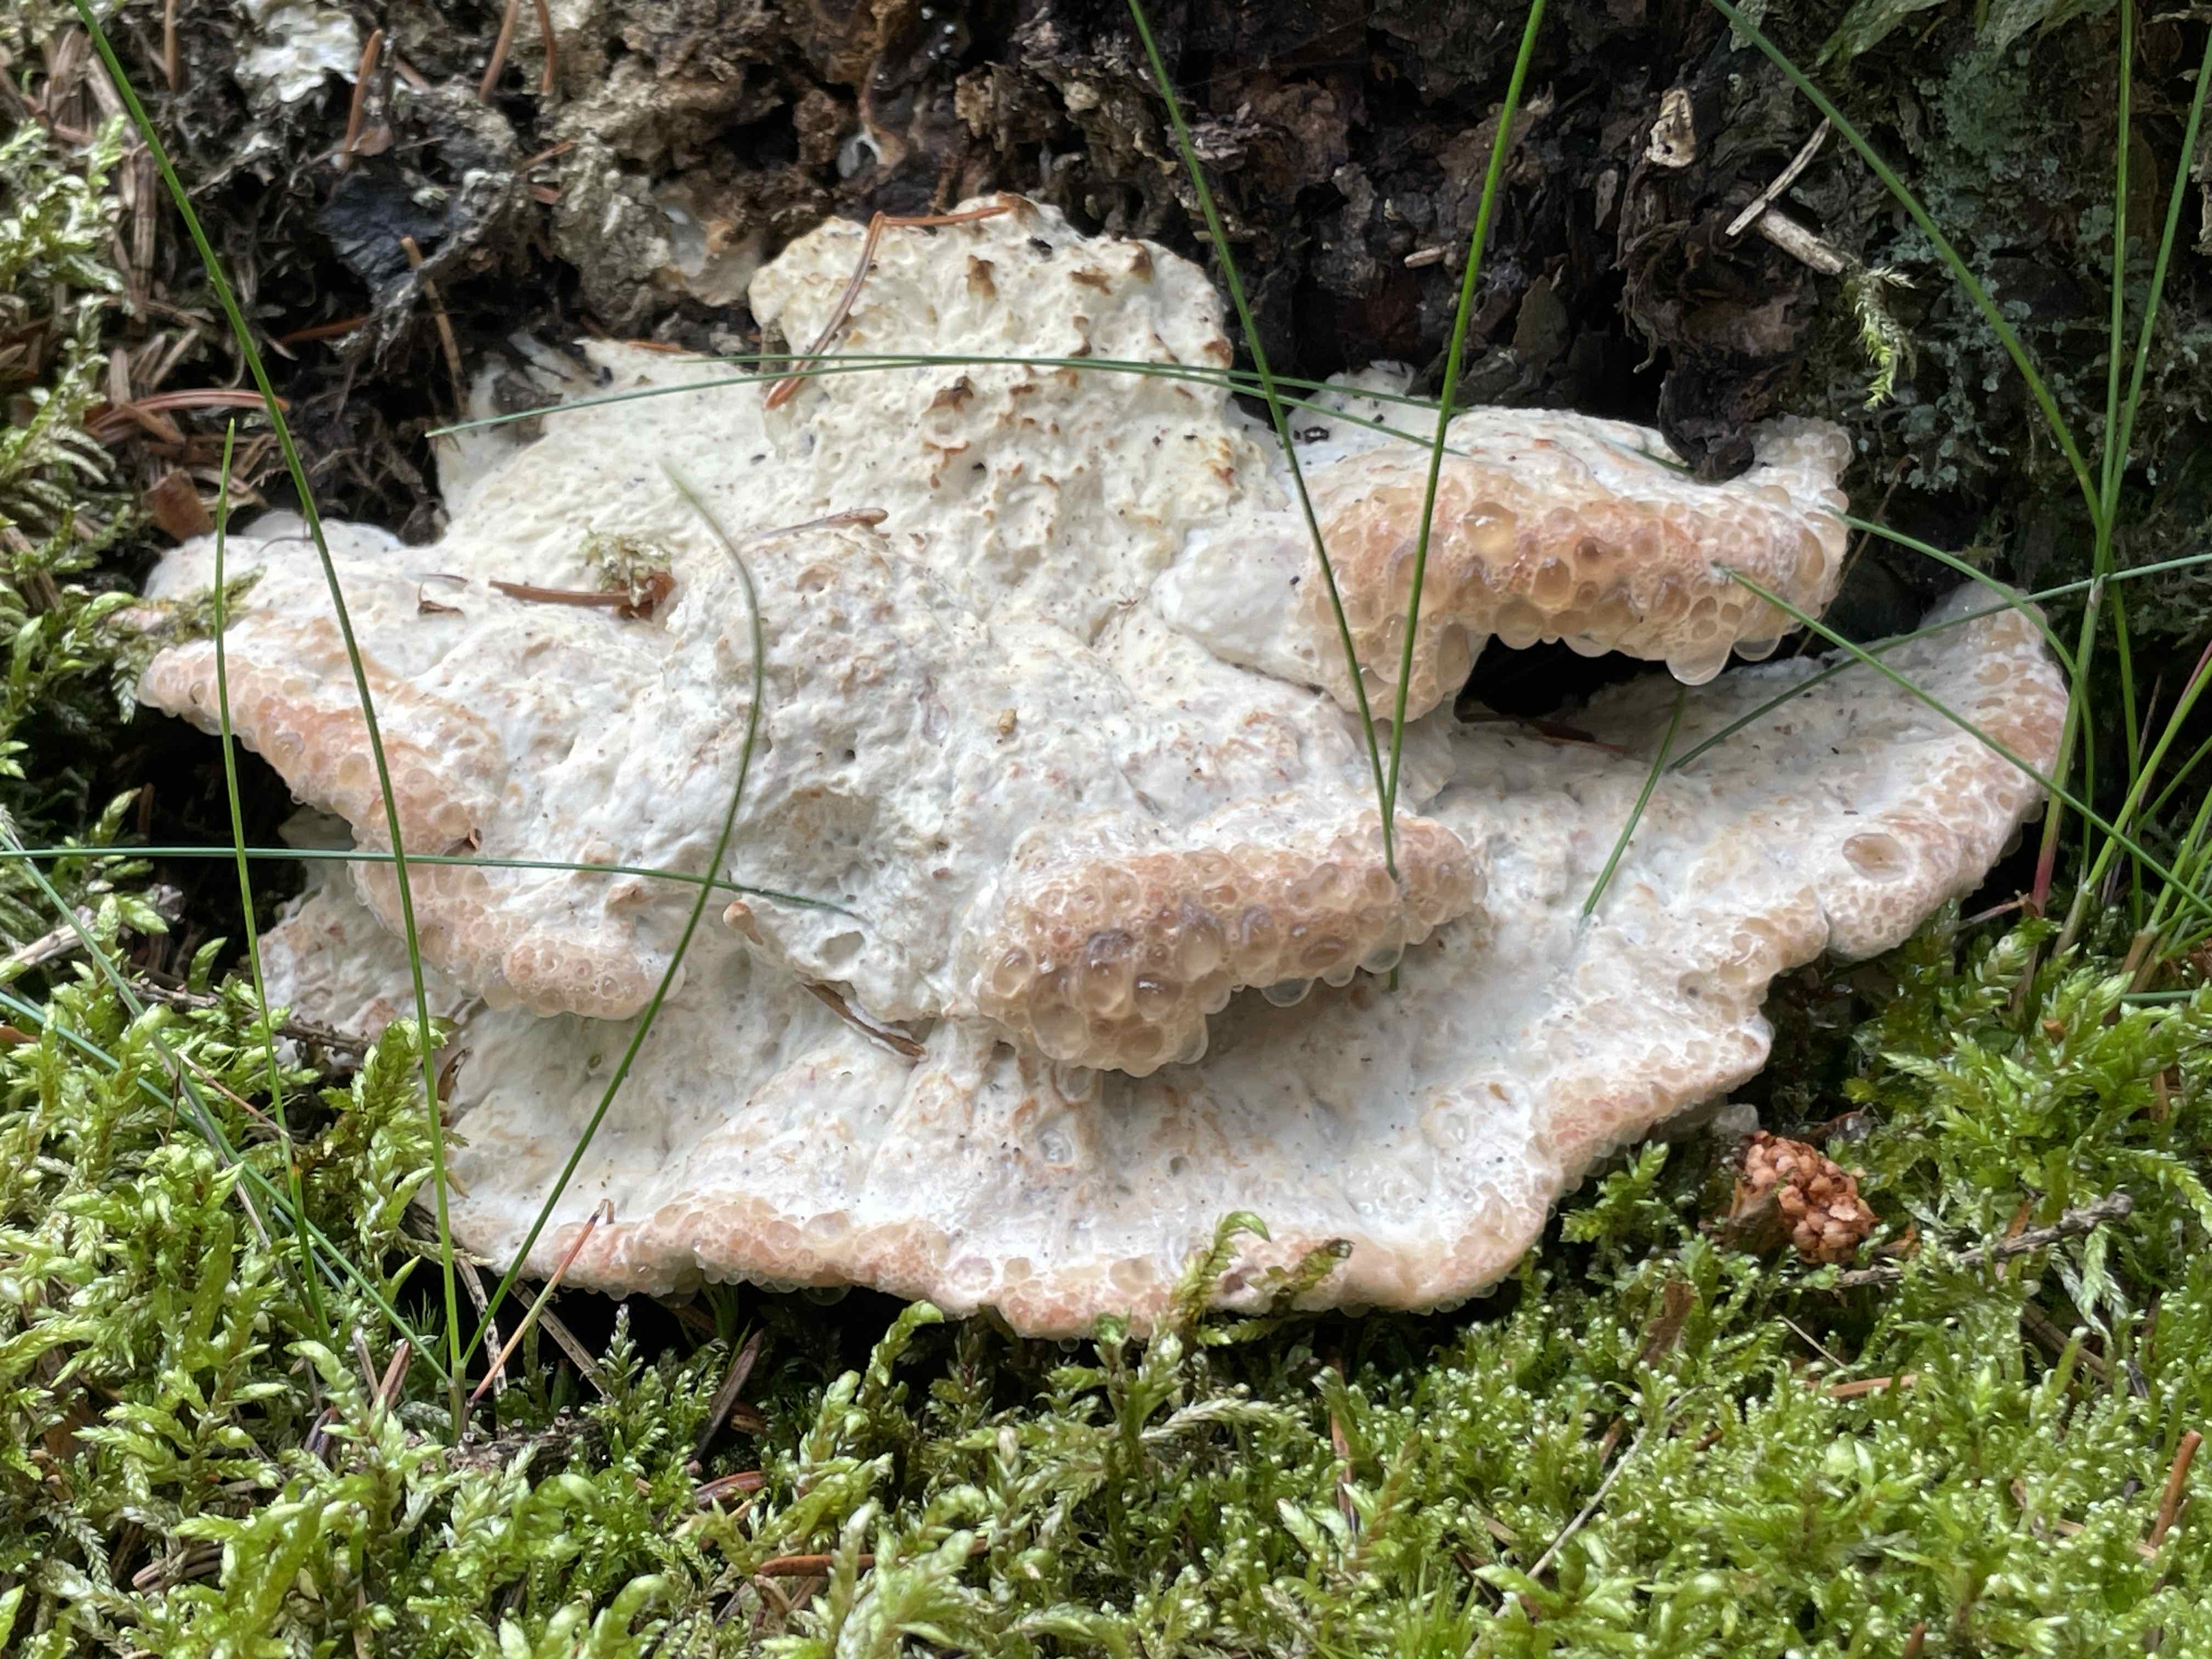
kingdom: Fungi
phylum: Basidiomycota
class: Agaricomycetes
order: Polyporales
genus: Calcipostia
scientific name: Calcipostia guttulata
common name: dråbe-kødporesvamp
